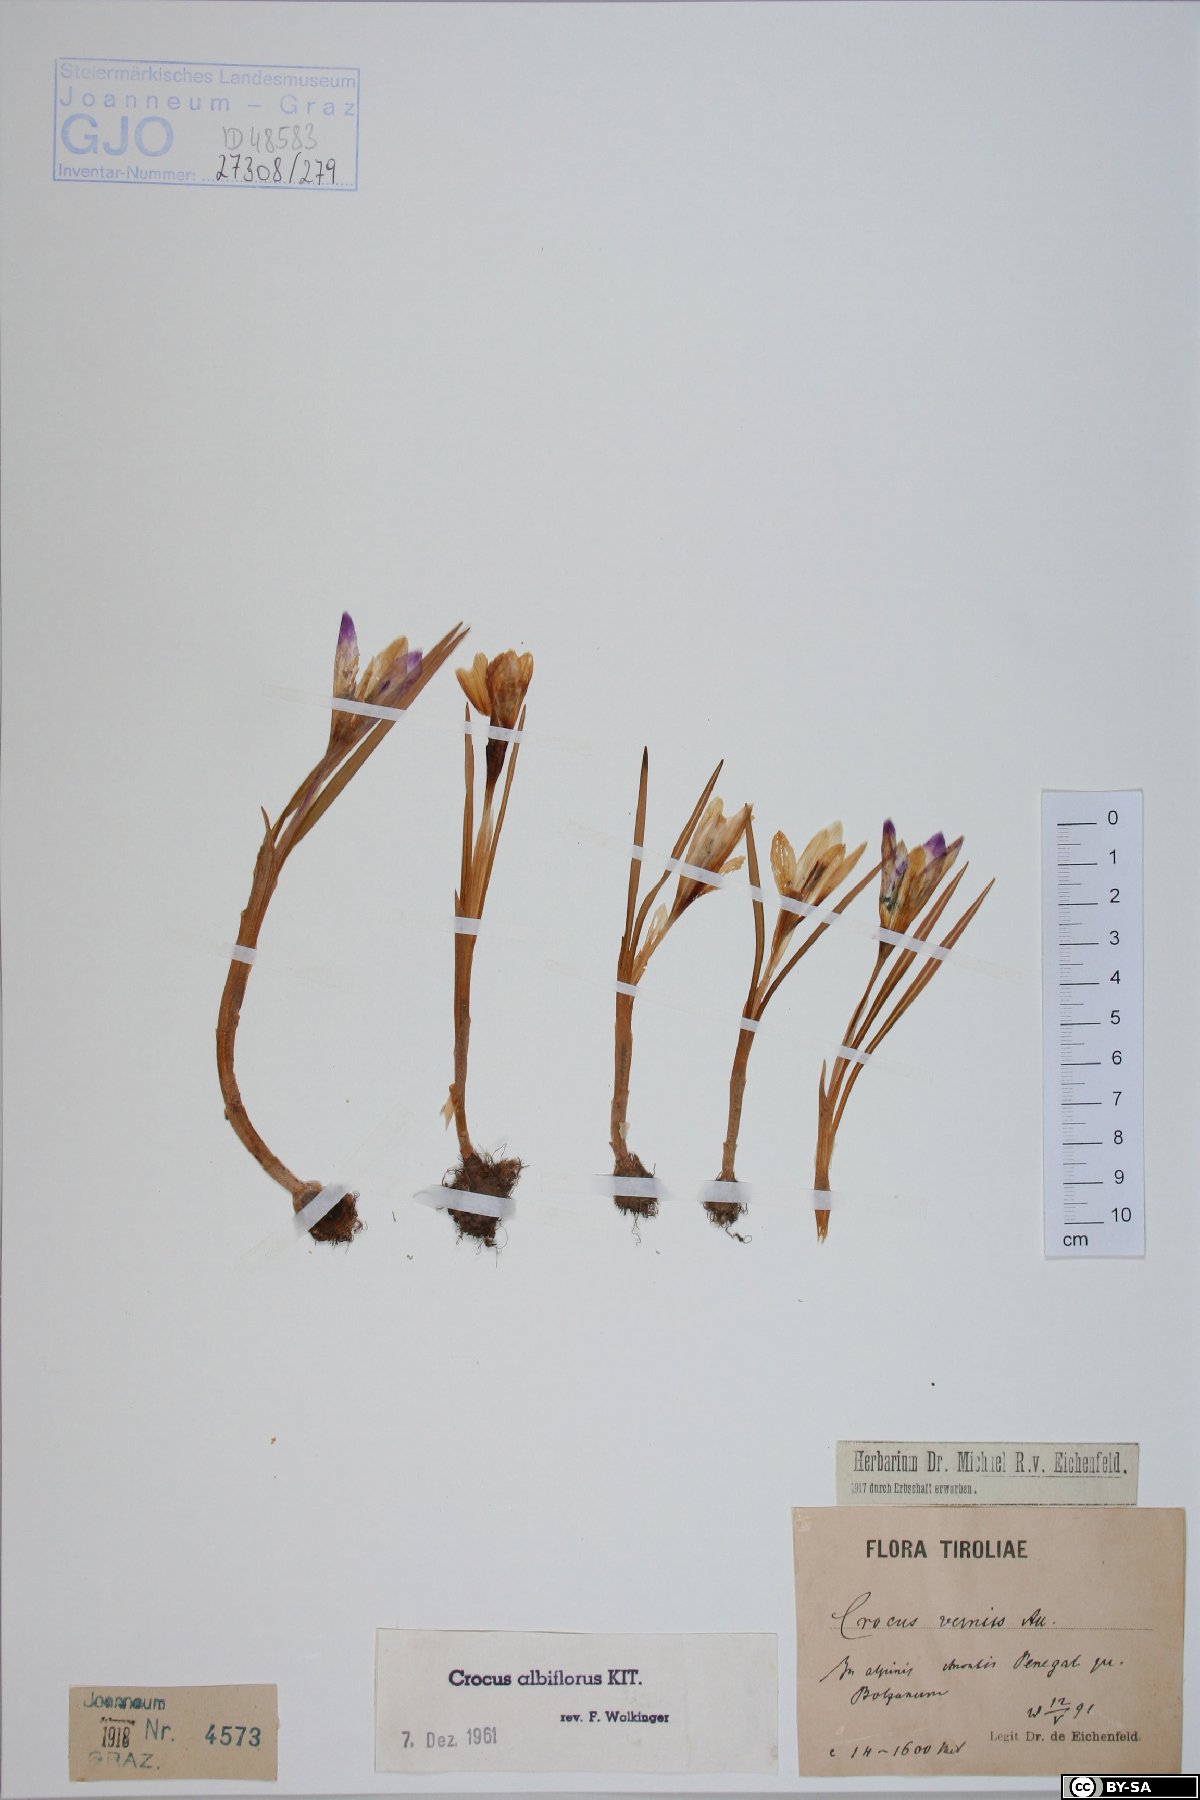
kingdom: Plantae
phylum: Tracheophyta
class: Liliopsida
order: Asparagales
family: Iridaceae
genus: Crocus
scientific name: Crocus vernus
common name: Spring crocus
